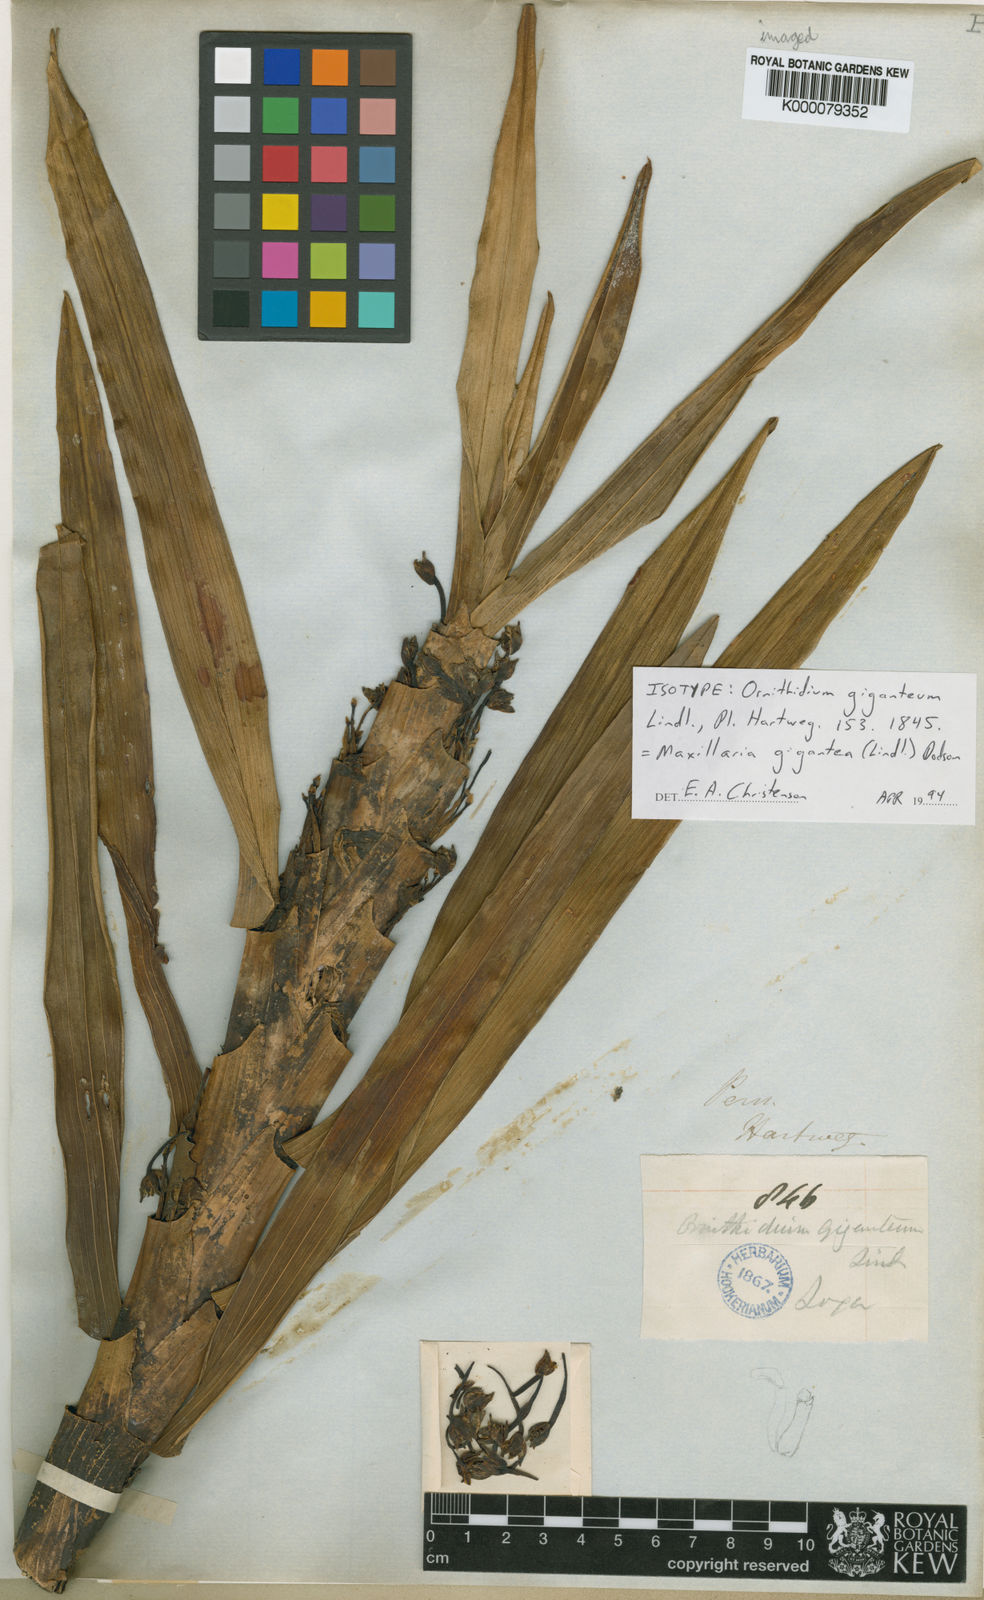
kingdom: Plantae
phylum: Tracheophyta
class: Liliopsida
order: Asparagales
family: Orchidaceae
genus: Maxillaria
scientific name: Maxillaria cordyline
